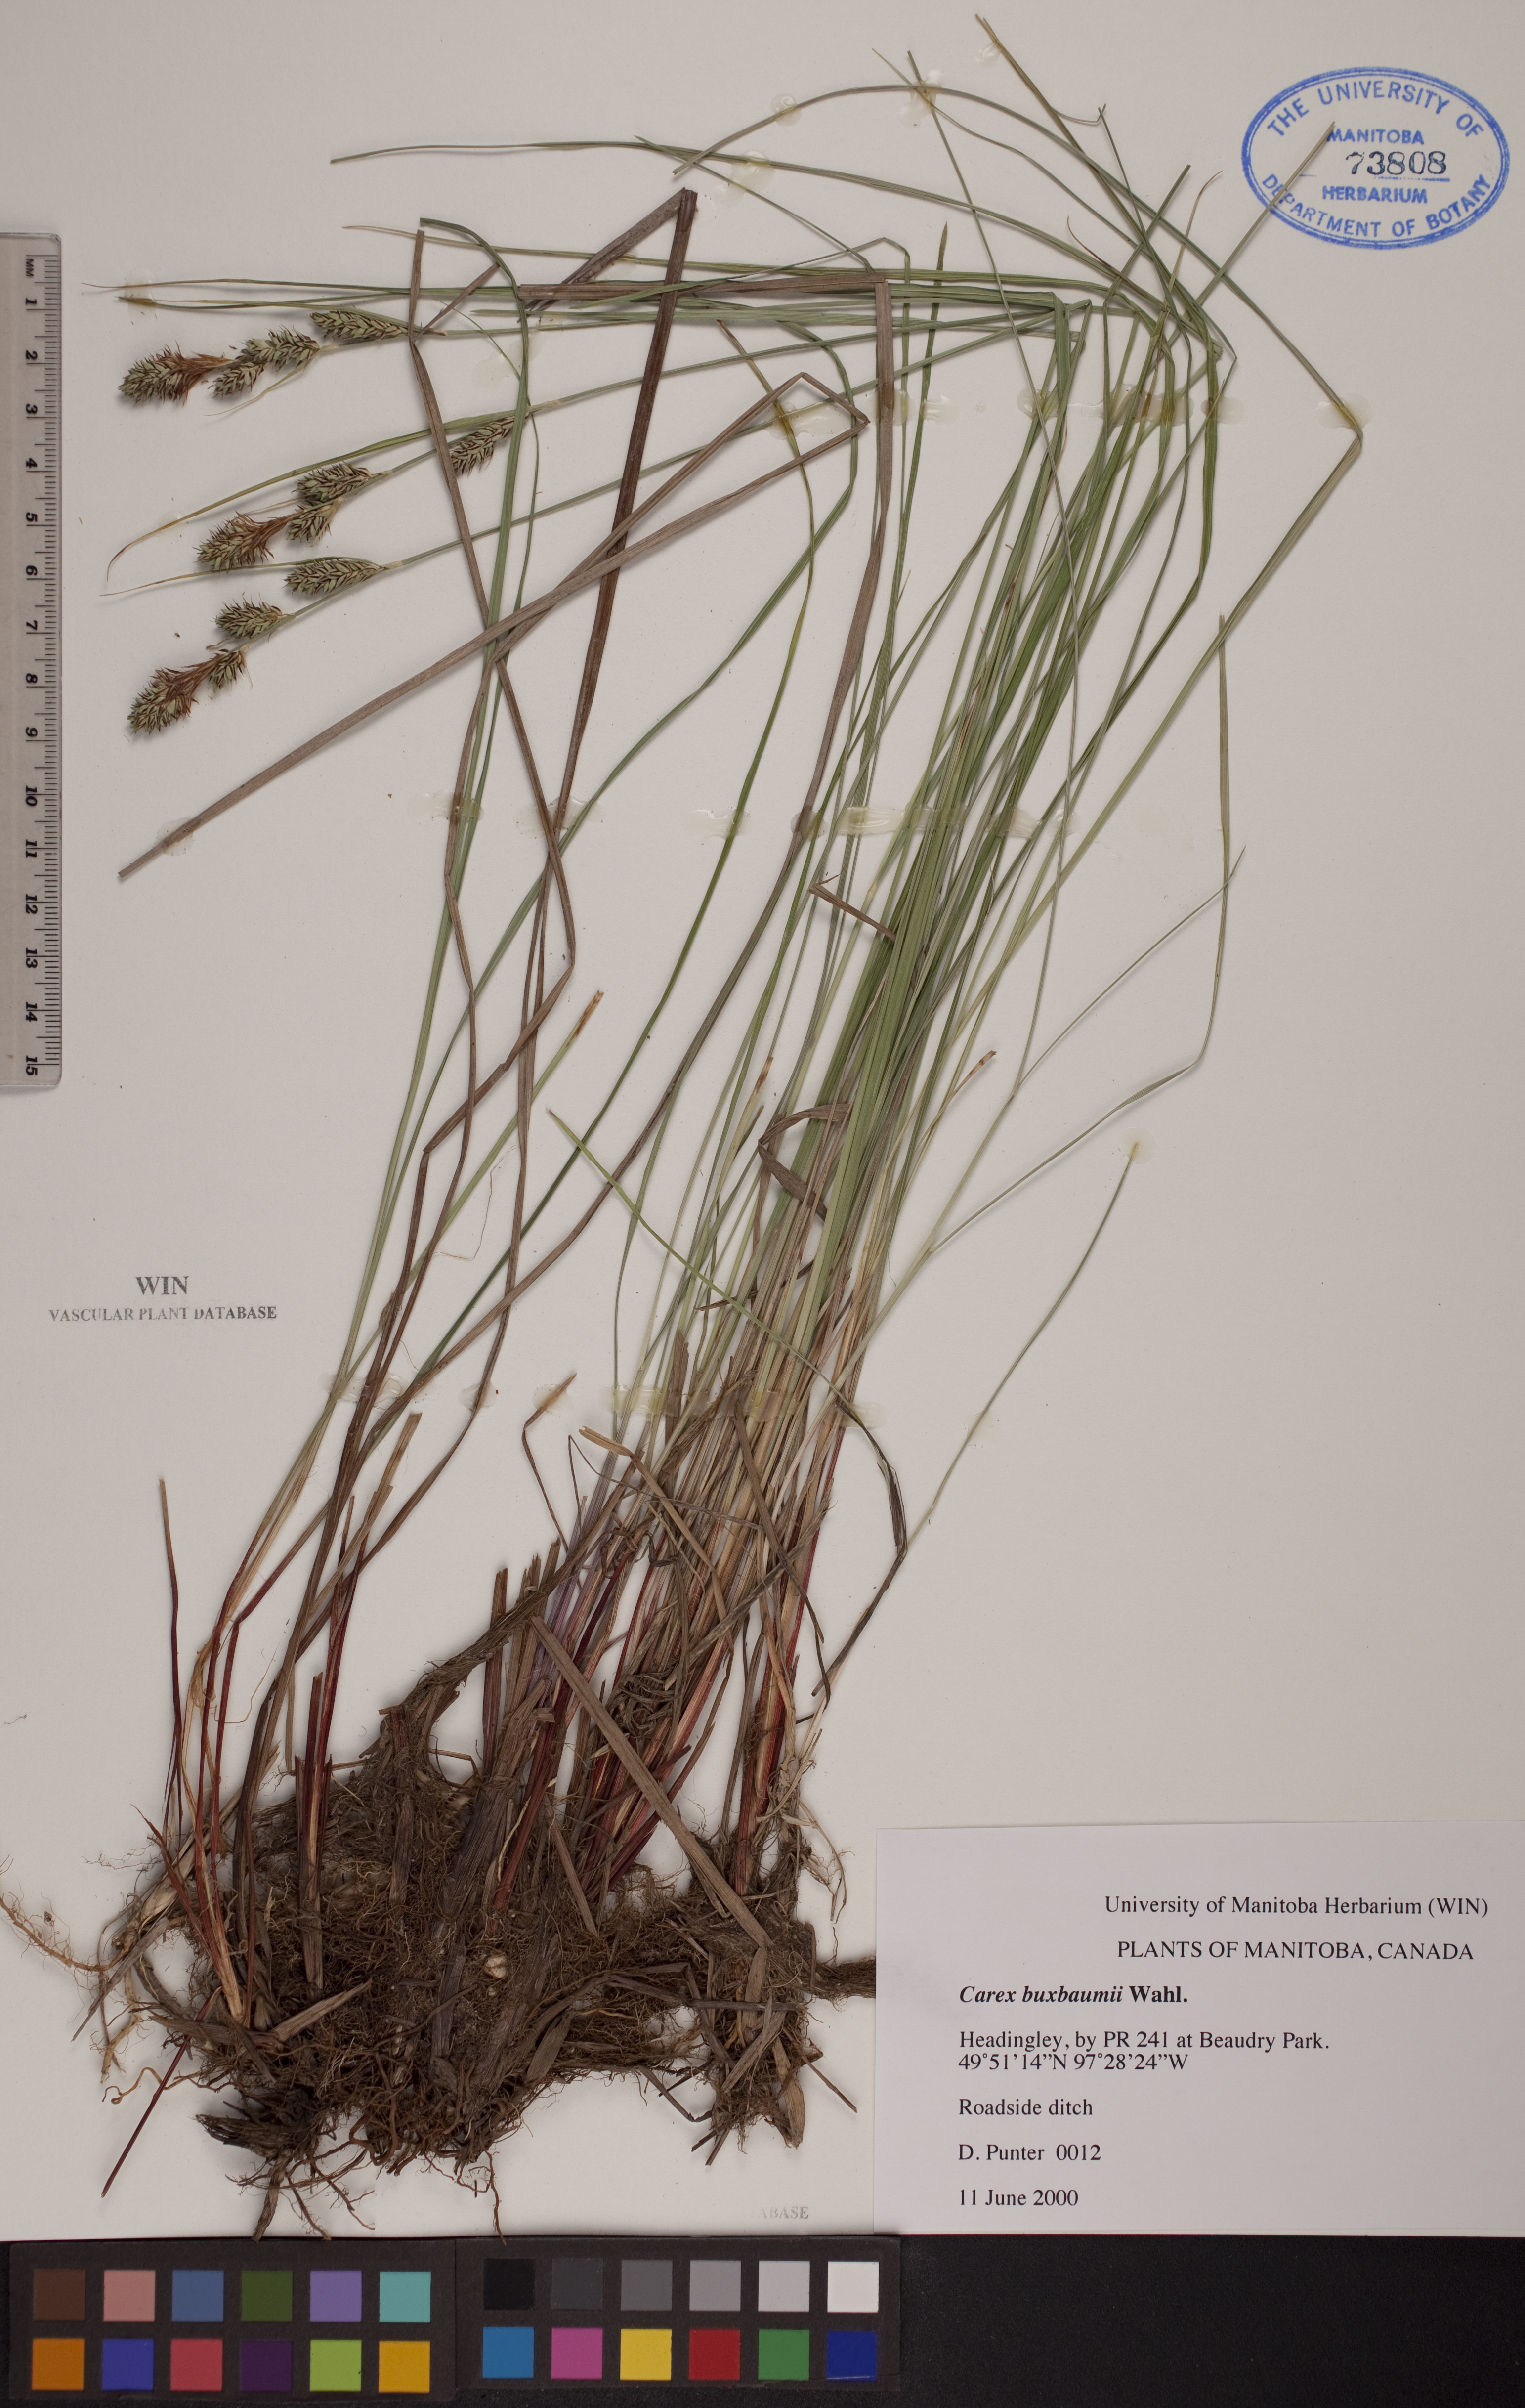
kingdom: Plantae
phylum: Tracheophyta
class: Liliopsida
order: Poales
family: Cyperaceae
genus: Carex
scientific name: Carex buxbaumii
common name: Club sedge
